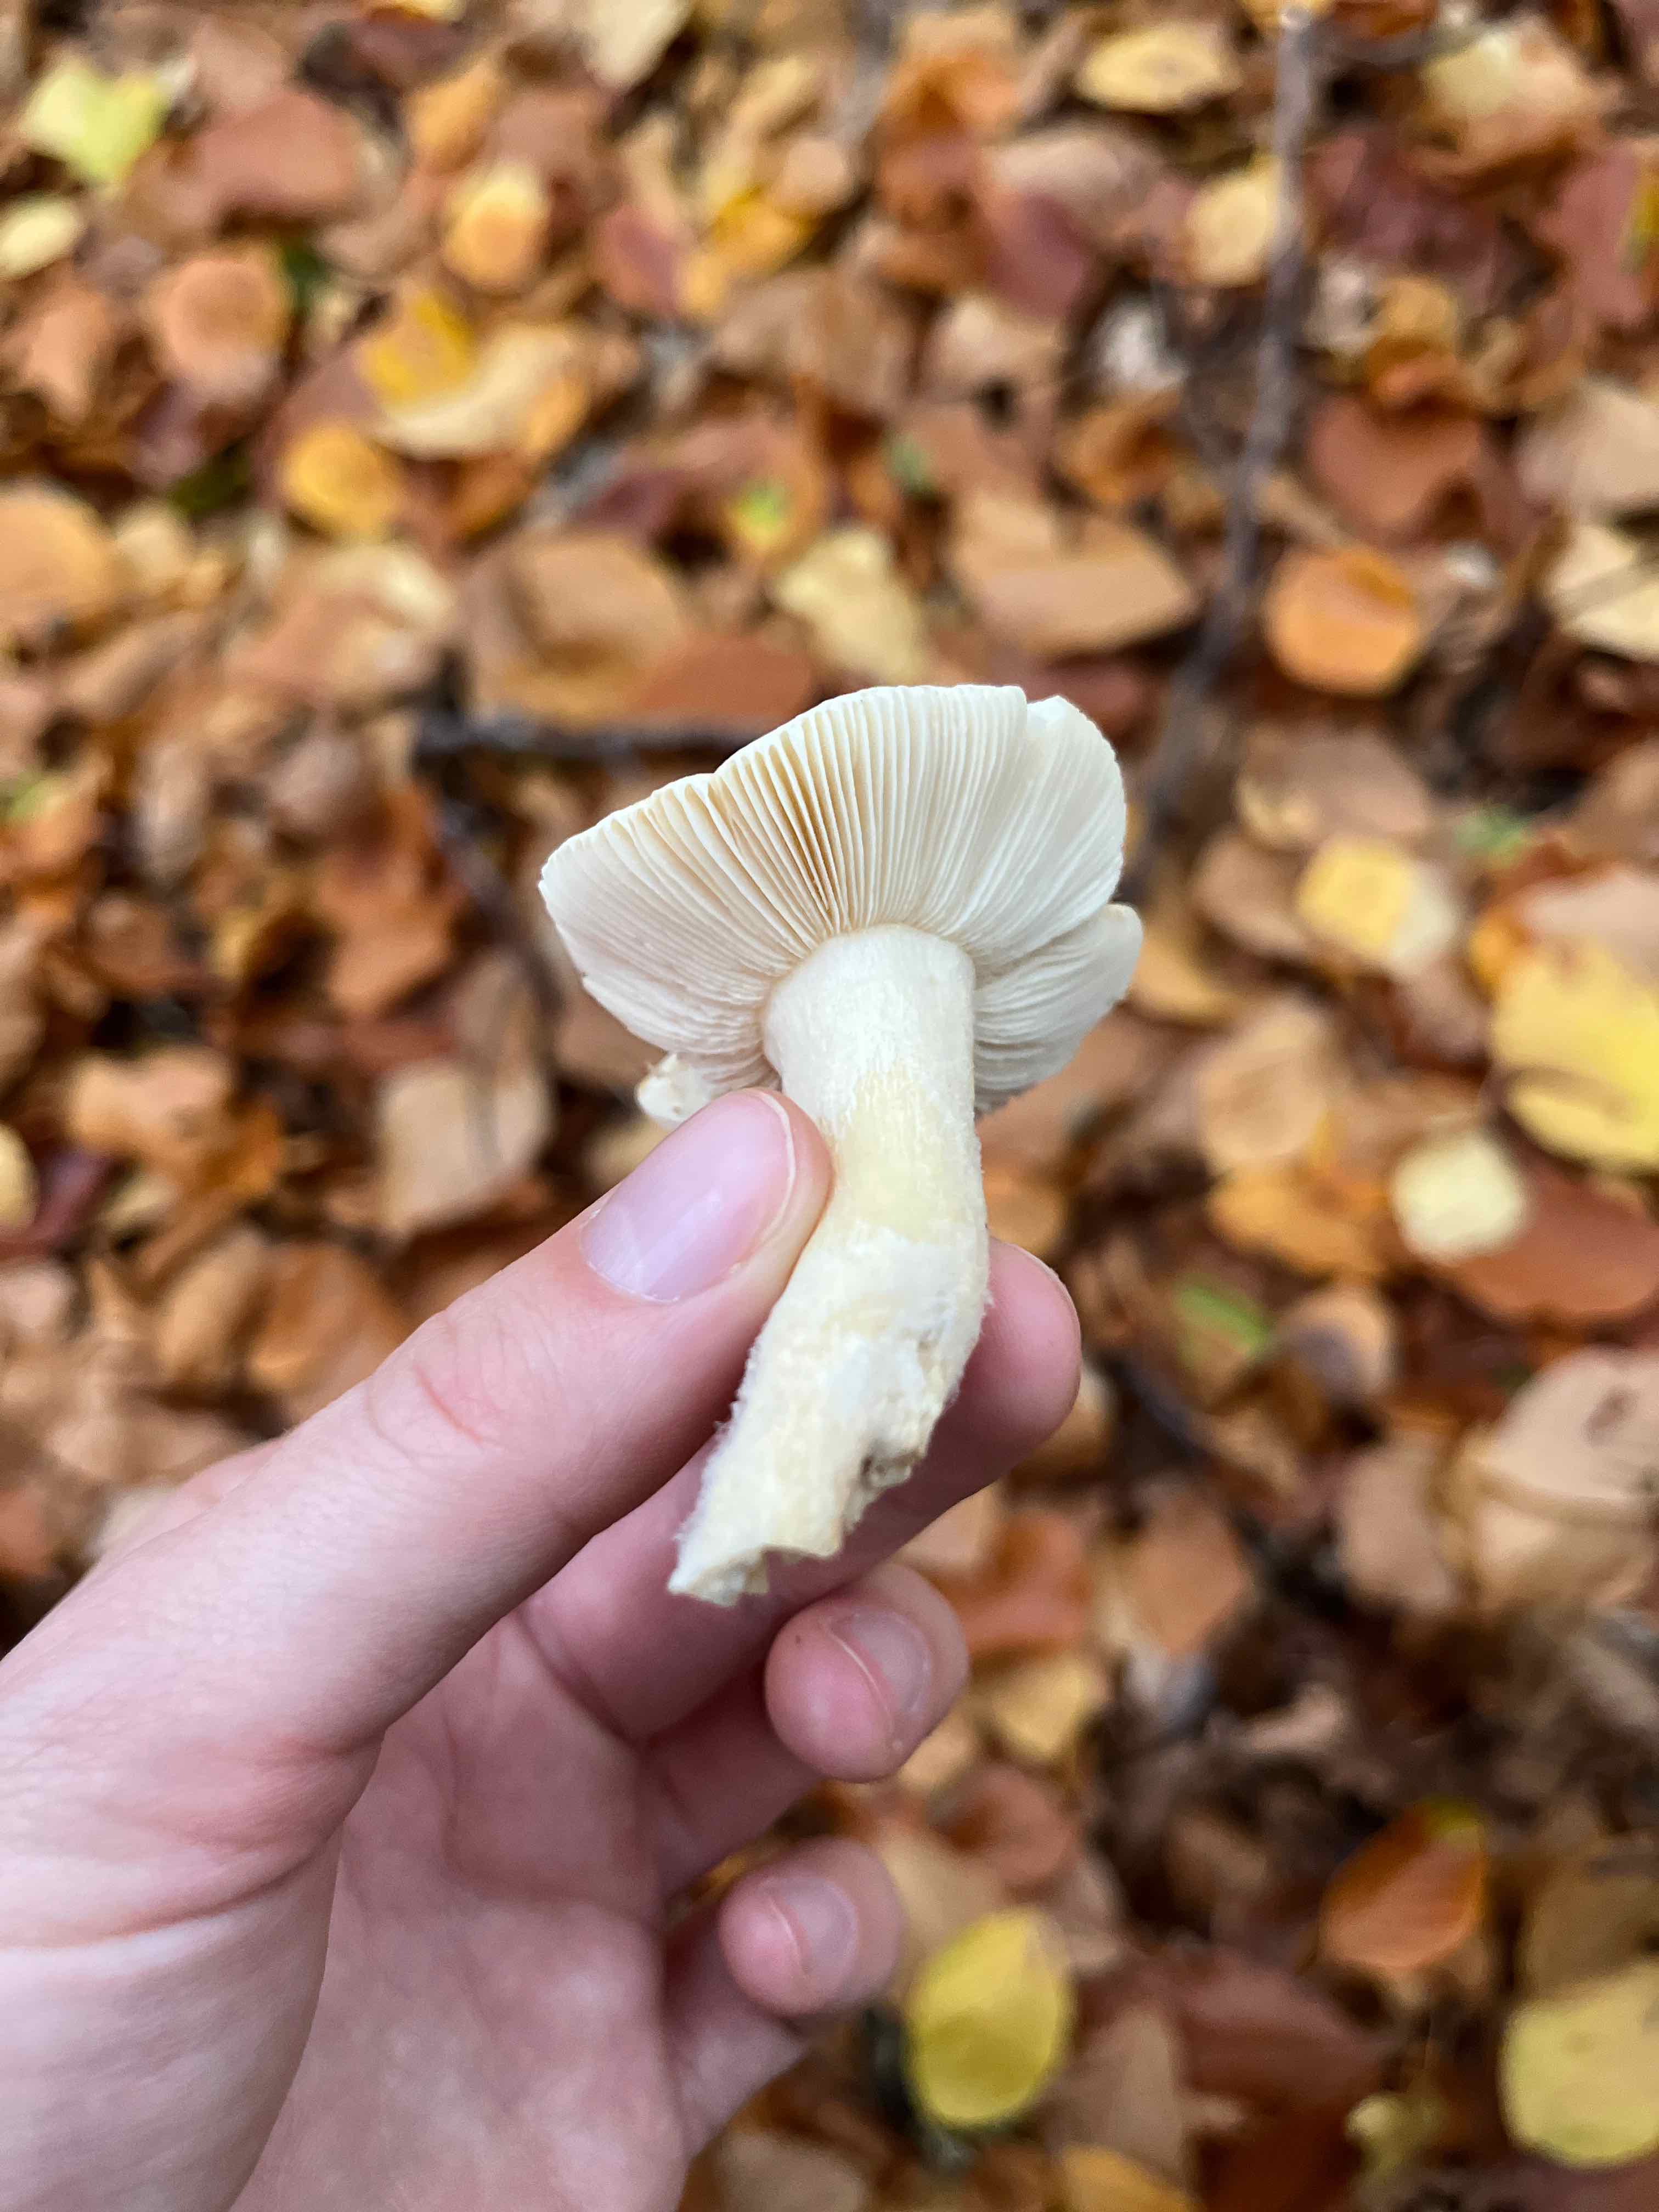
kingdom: Fungi
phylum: Basidiomycota
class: Agaricomycetes
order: Russulales
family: Russulaceae
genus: Russula
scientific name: Russula fellea
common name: galde-skørhat
